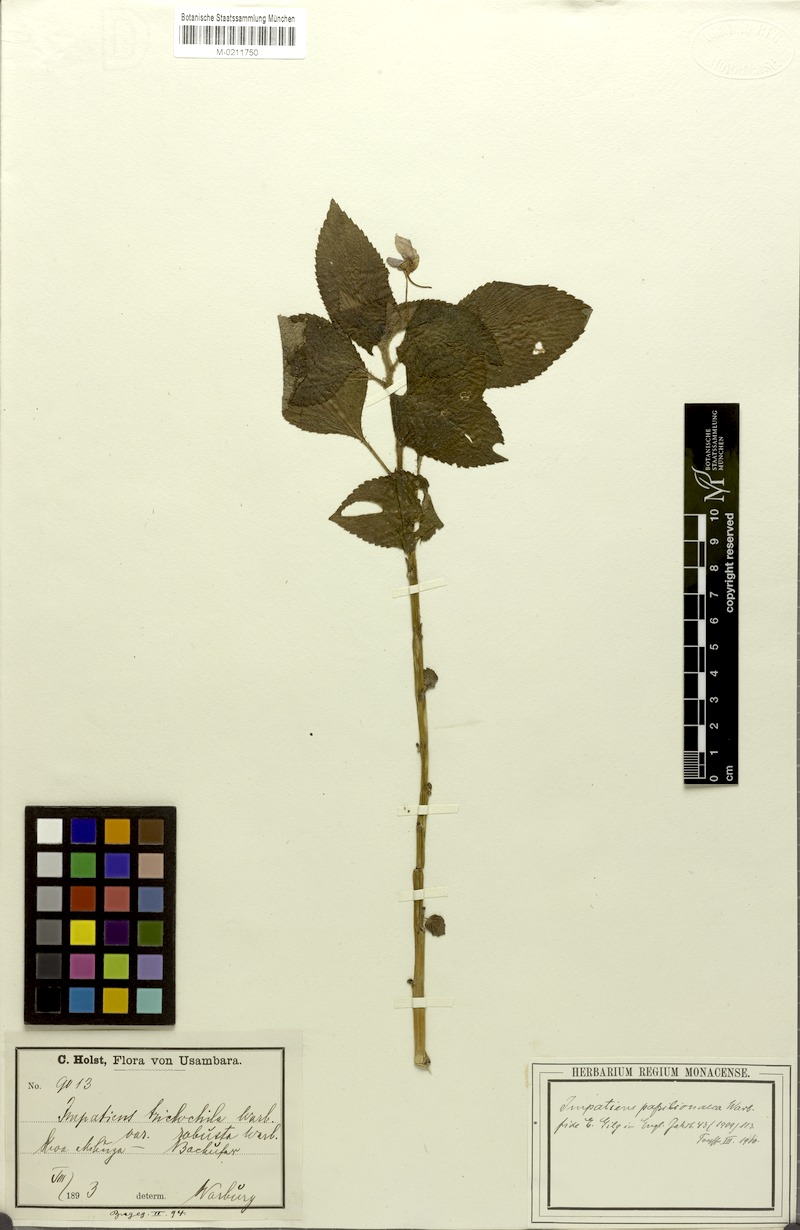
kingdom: Plantae
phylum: Tracheophyta
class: Magnoliopsida
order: Ericales
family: Balsaminaceae
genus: Impatiens
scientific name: Impatiens nana
